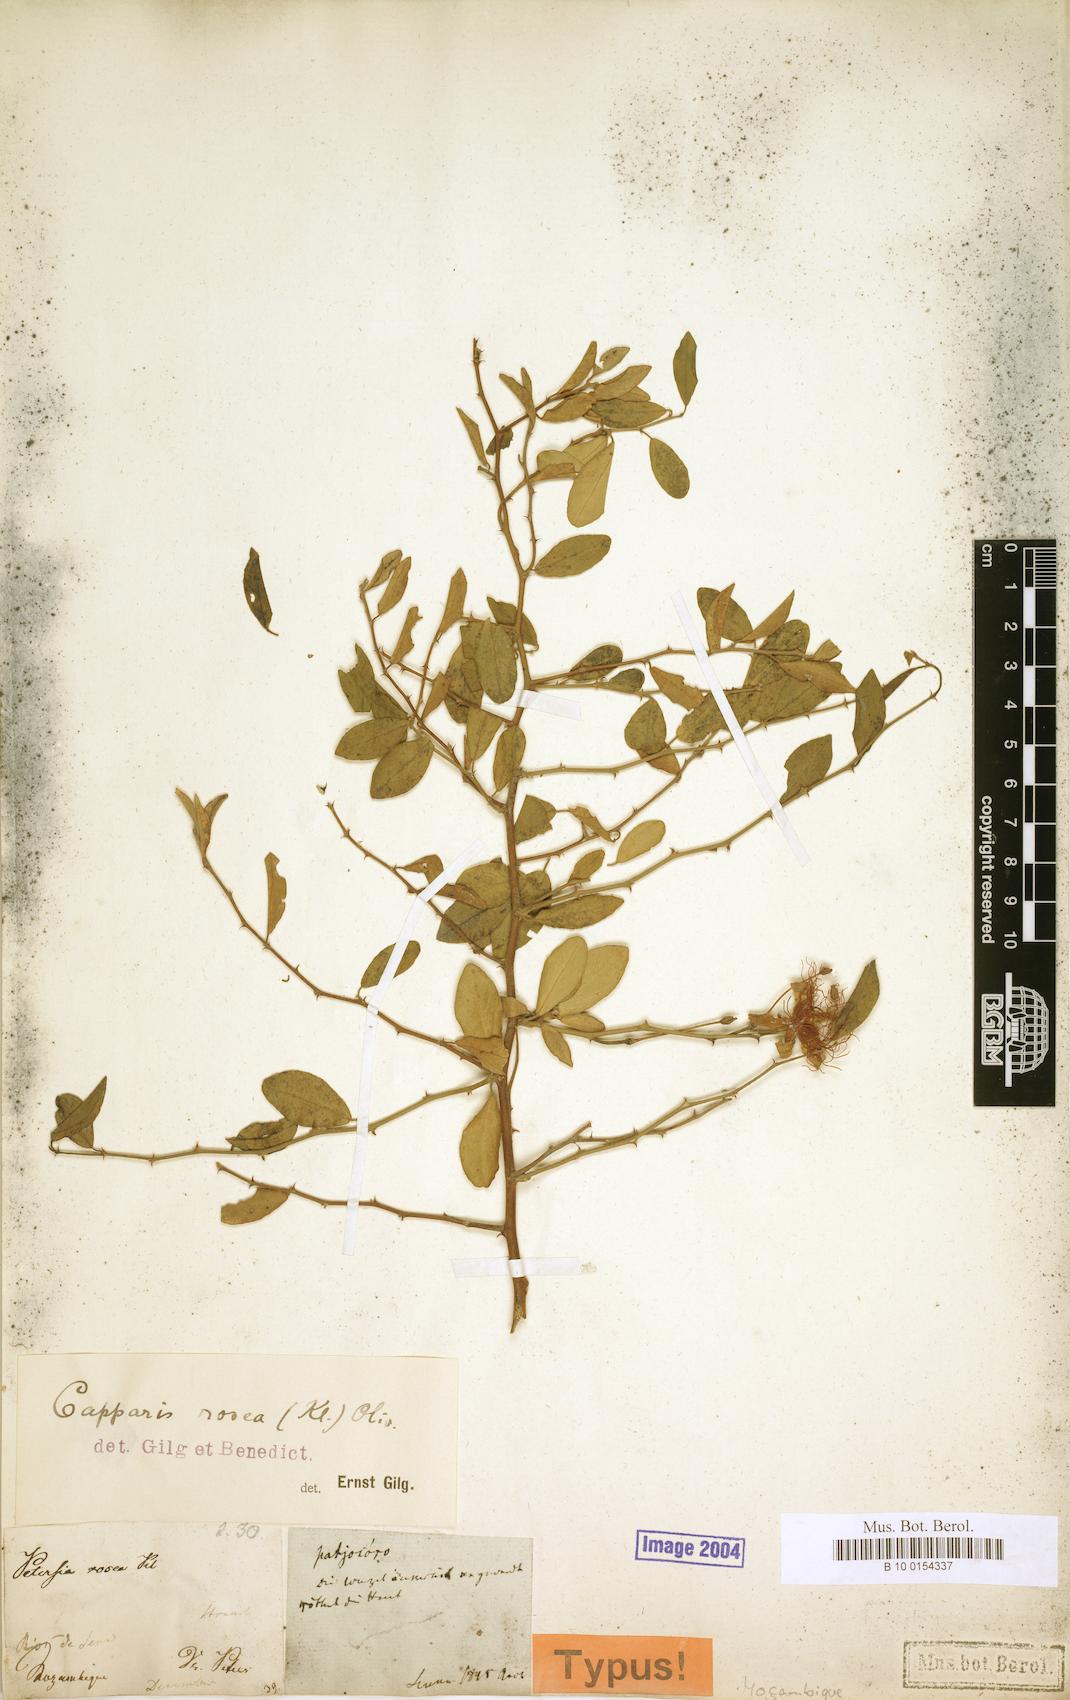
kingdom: Plantae
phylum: Tracheophyta
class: Magnoliopsida
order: Brassicales
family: Capparaceae
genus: Capparis
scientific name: Capparis erythrocarpos
